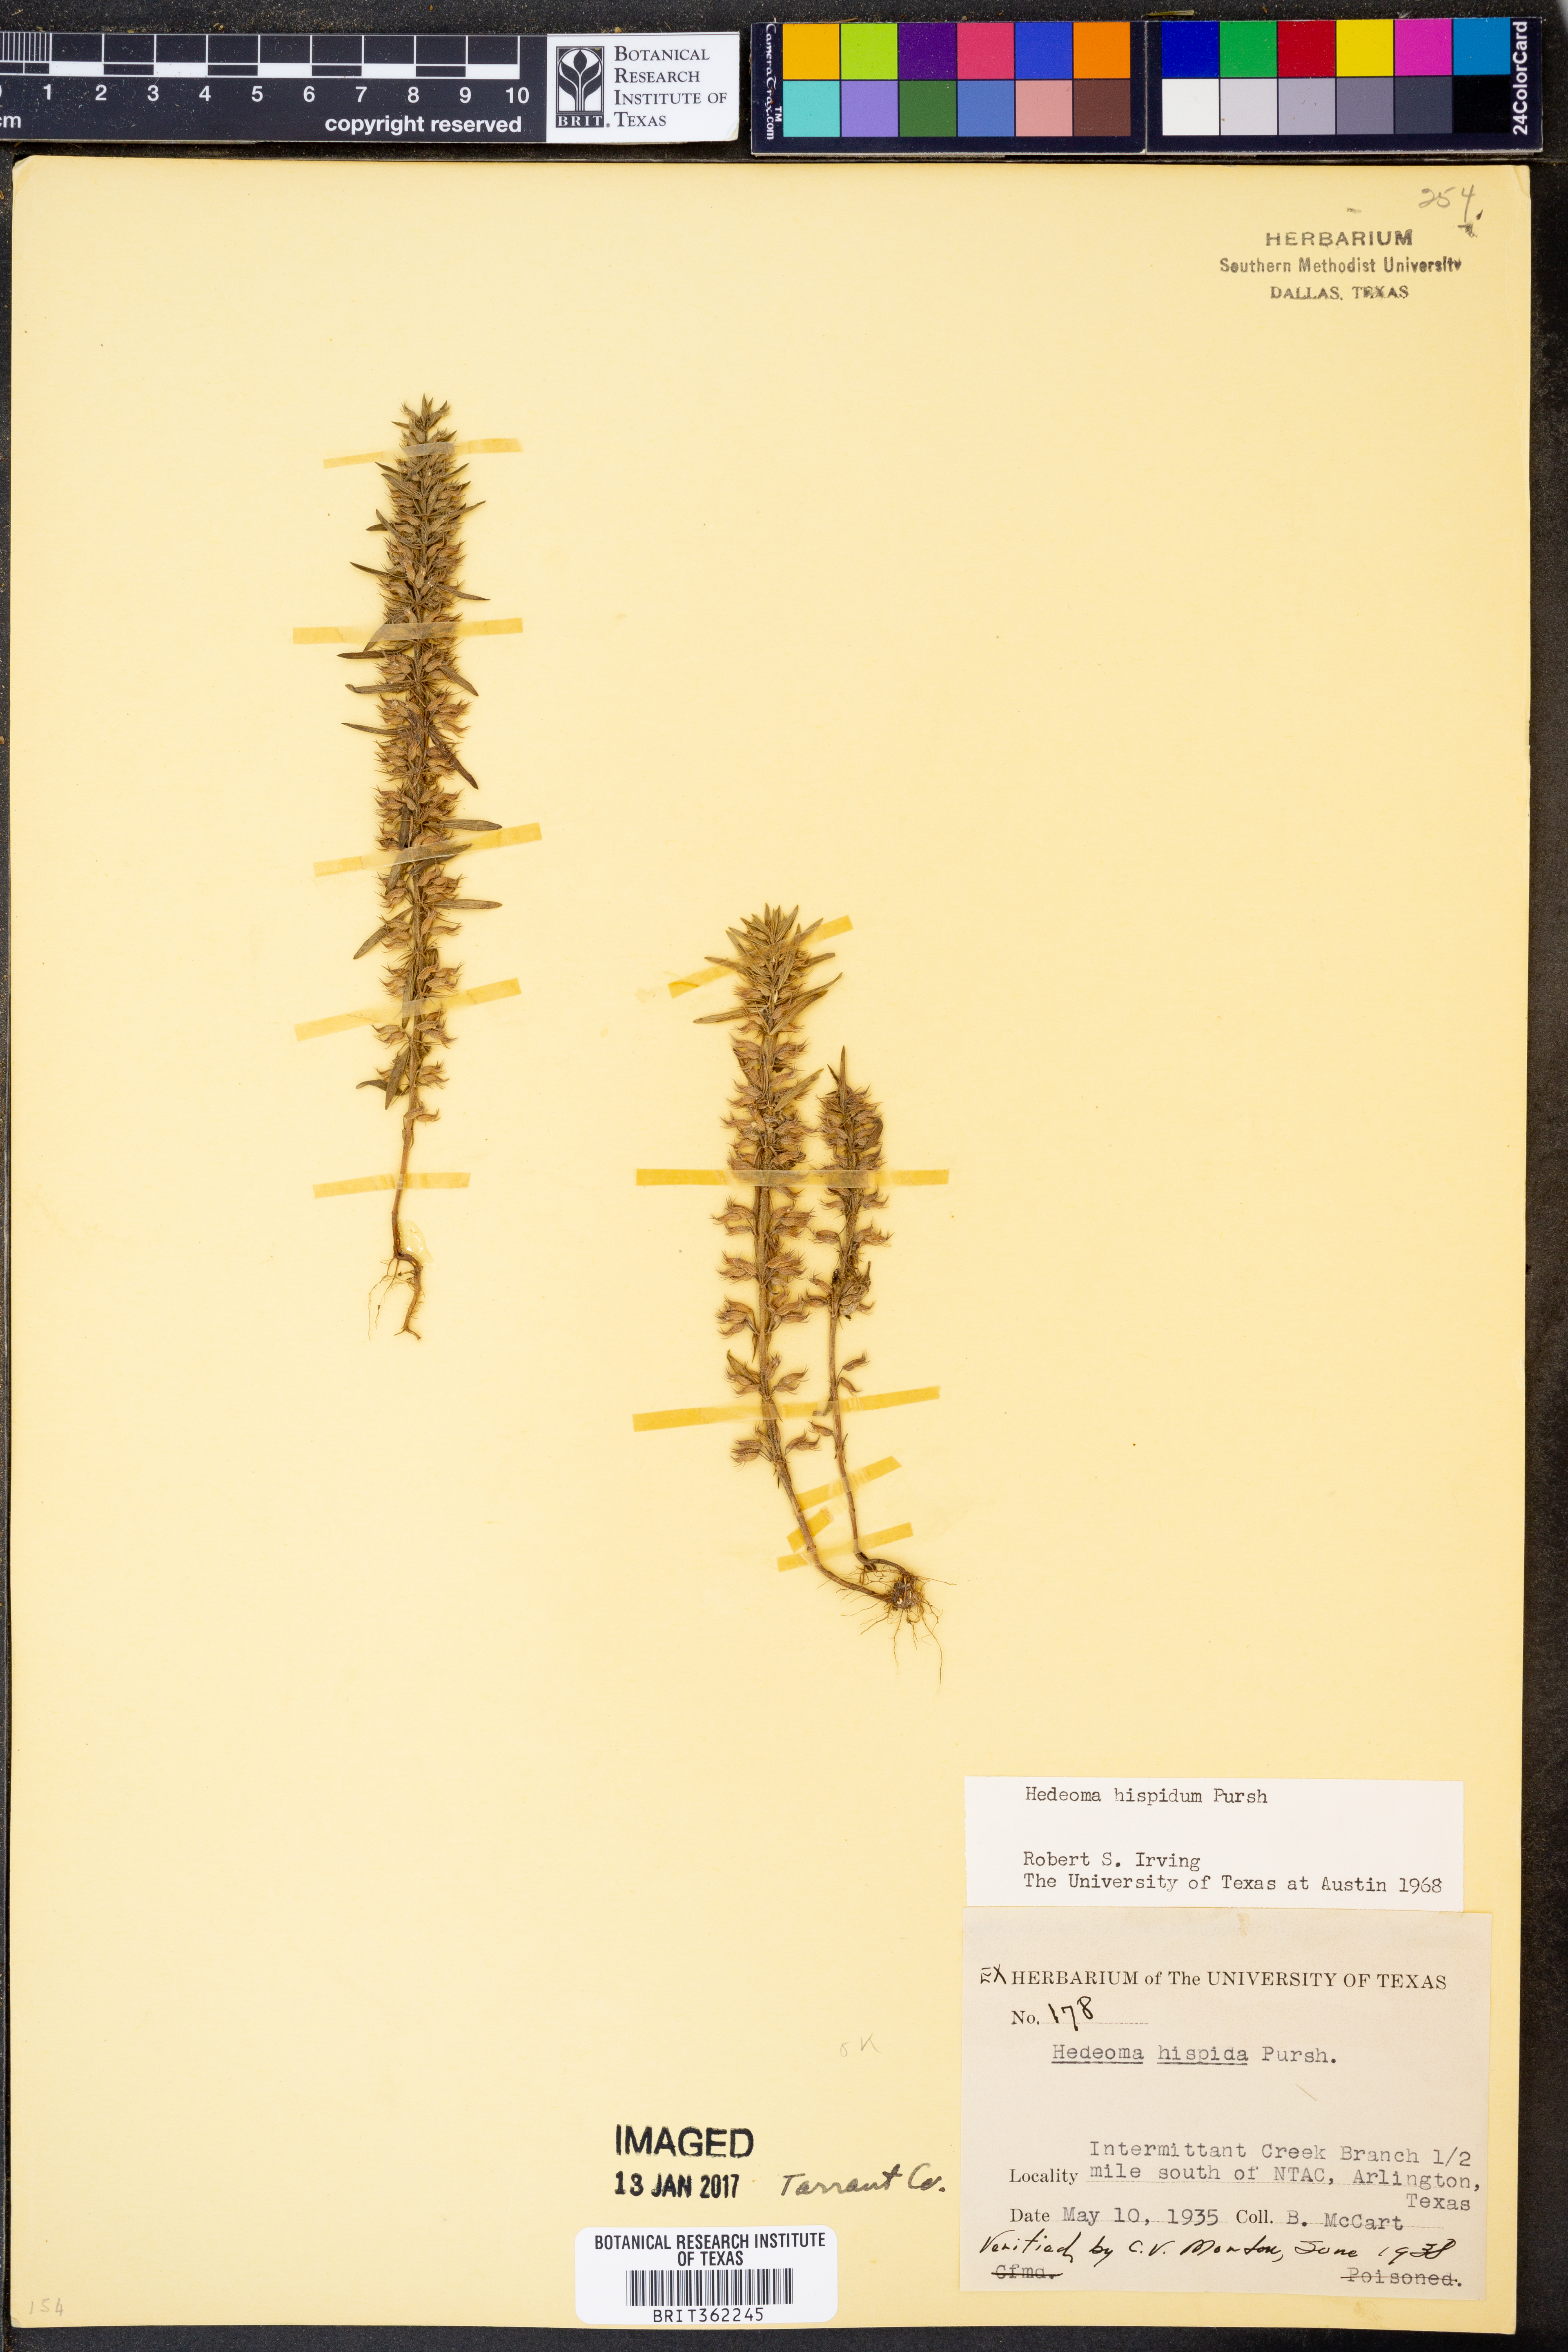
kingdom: Plantae
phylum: Tracheophyta
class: Magnoliopsida
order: Lamiales
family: Lamiaceae
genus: Hedeoma
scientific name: Hedeoma hispida
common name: Mock pennyroyal
